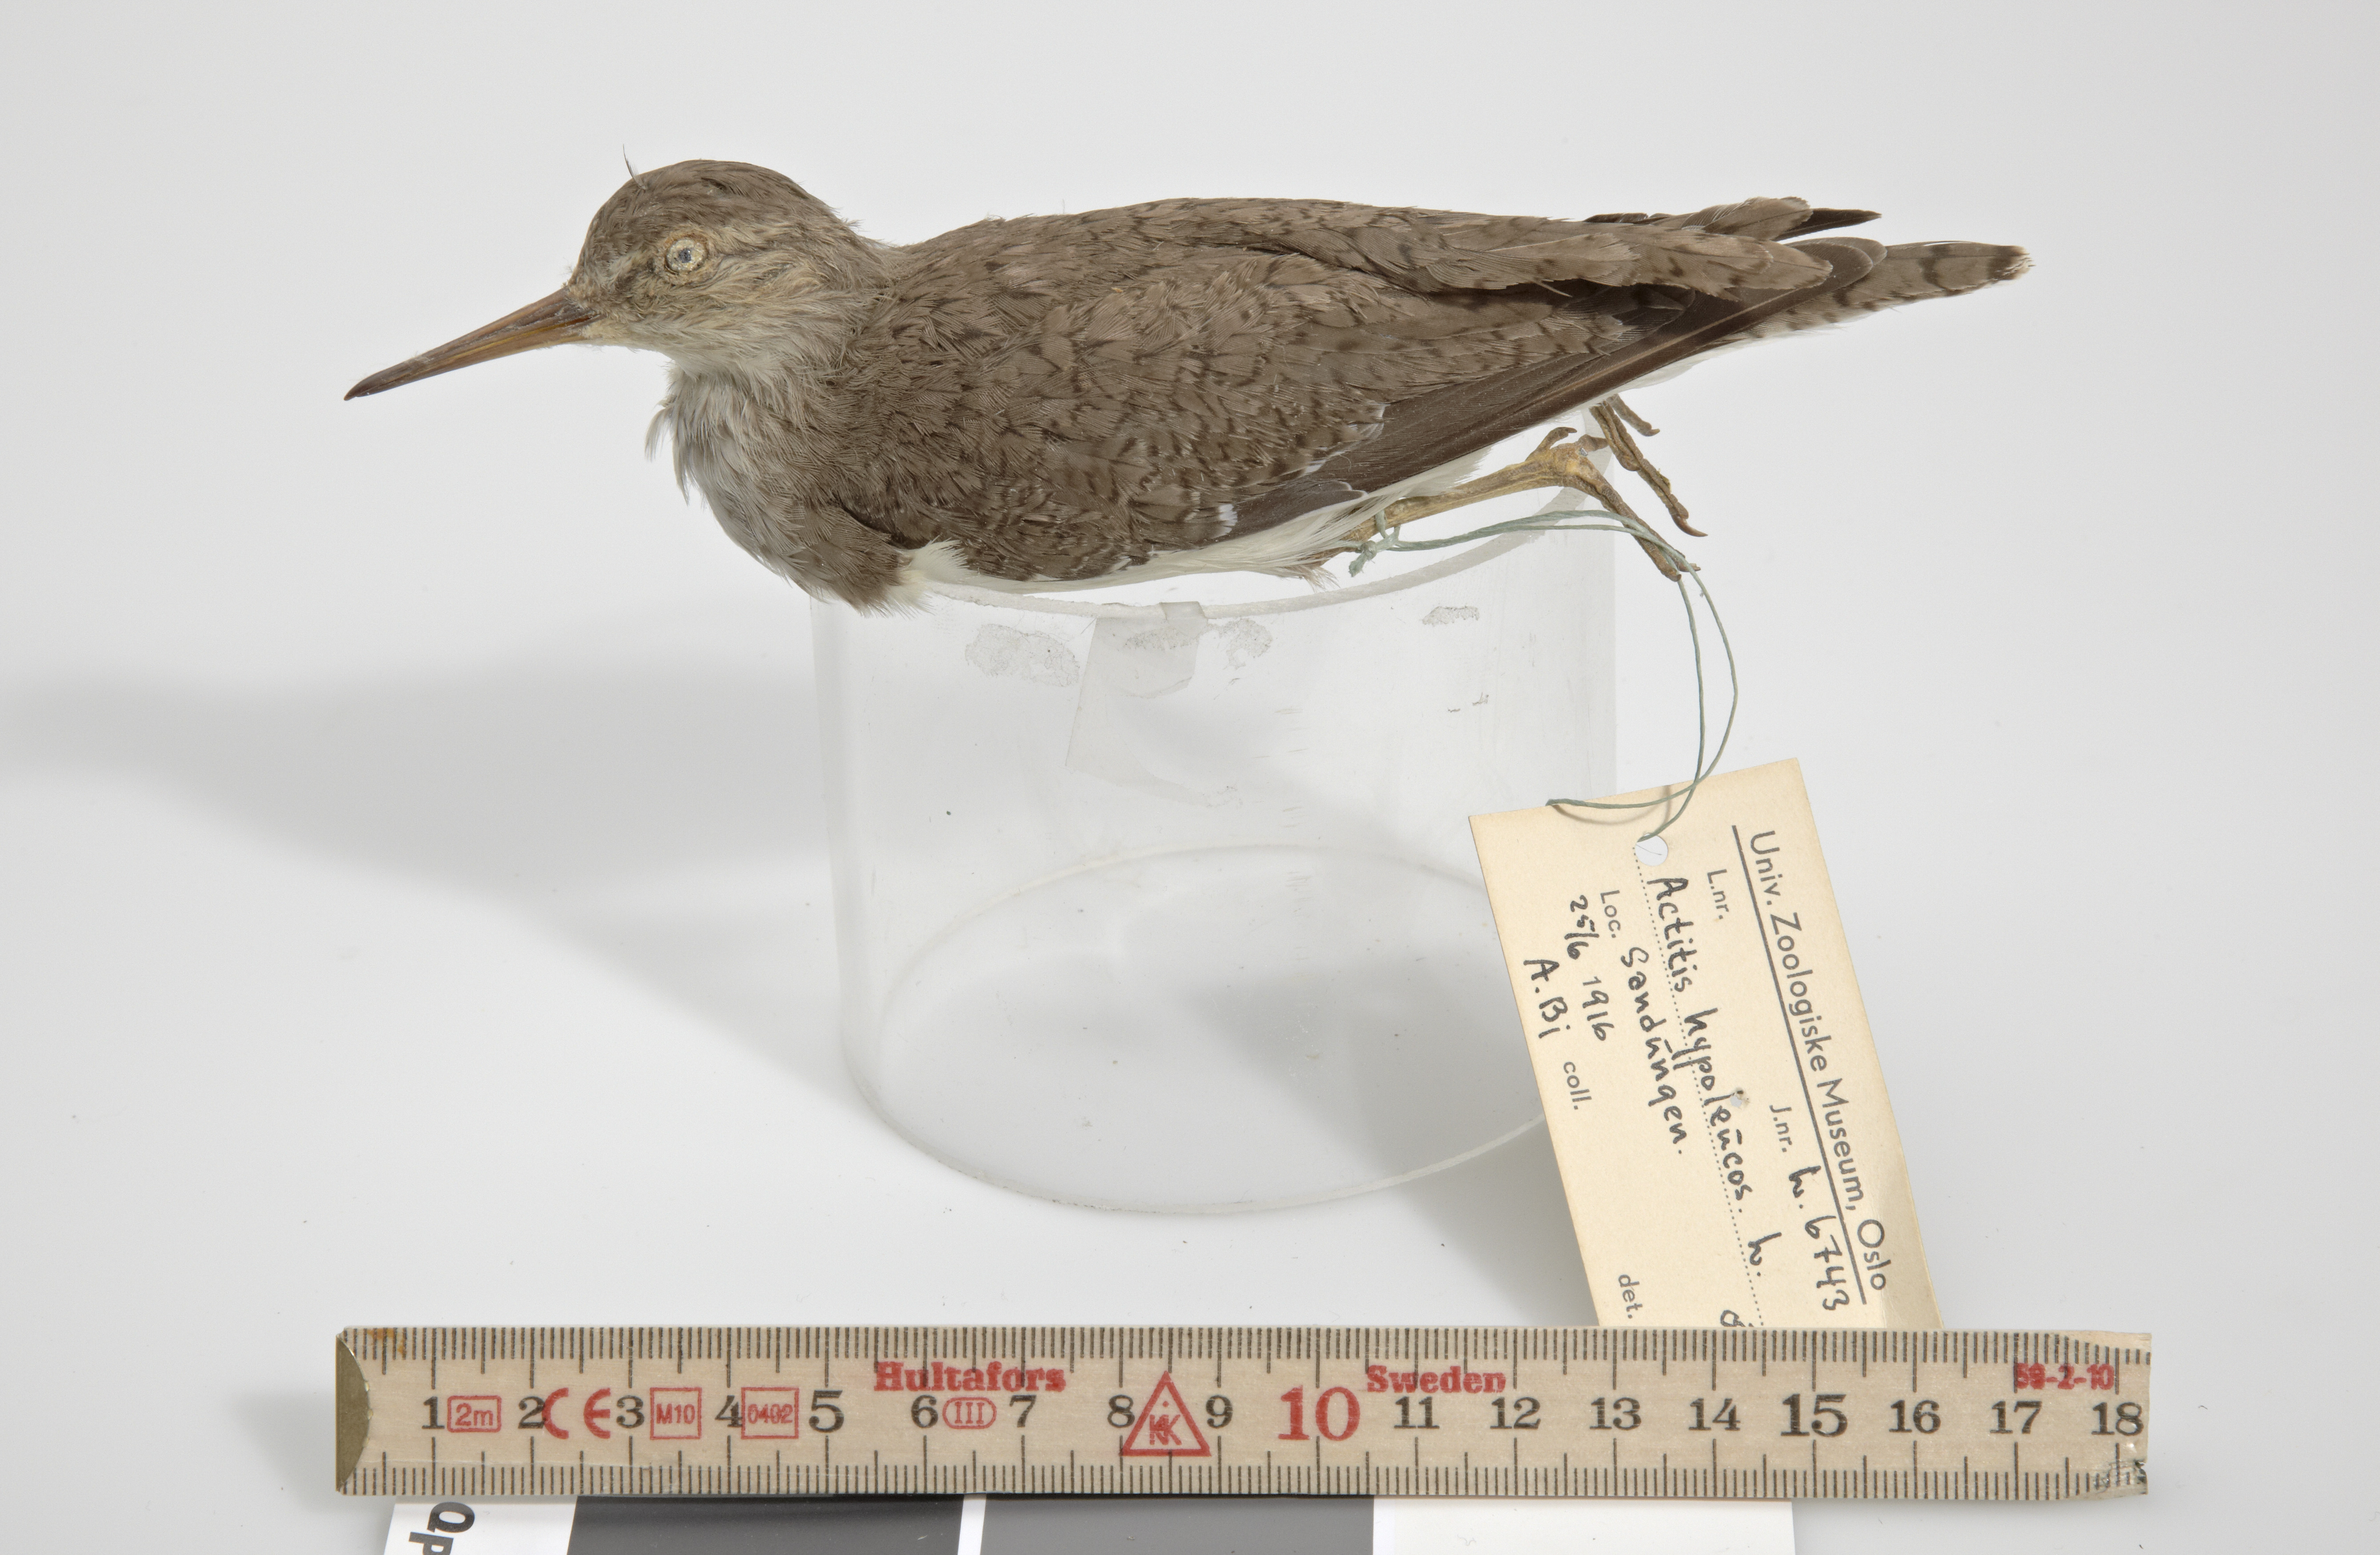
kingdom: Animalia
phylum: Chordata
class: Aves
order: Charadriiformes
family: Scolopacidae
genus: Actitis
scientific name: Actitis hypoleucos
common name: Common sandpiper
